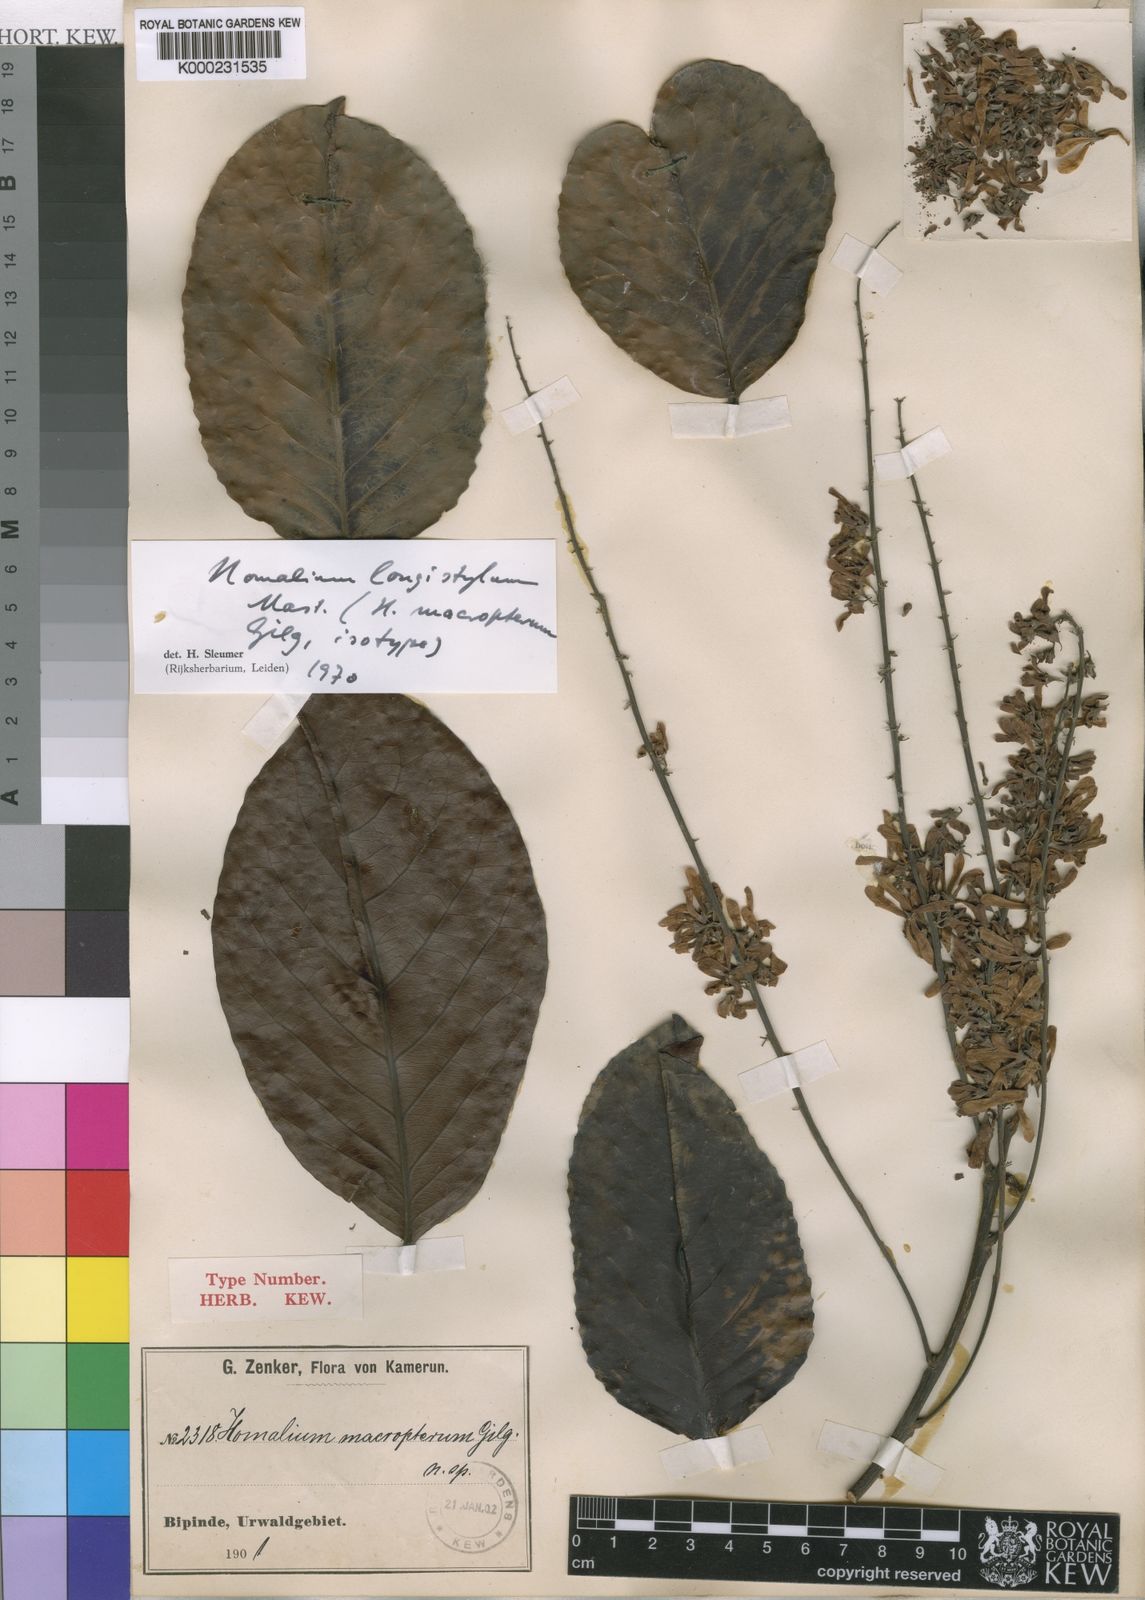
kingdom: Plantae
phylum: Tracheophyta
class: Magnoliopsida
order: Malpighiales
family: Salicaceae
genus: Homalium
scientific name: Homalium longistylum
